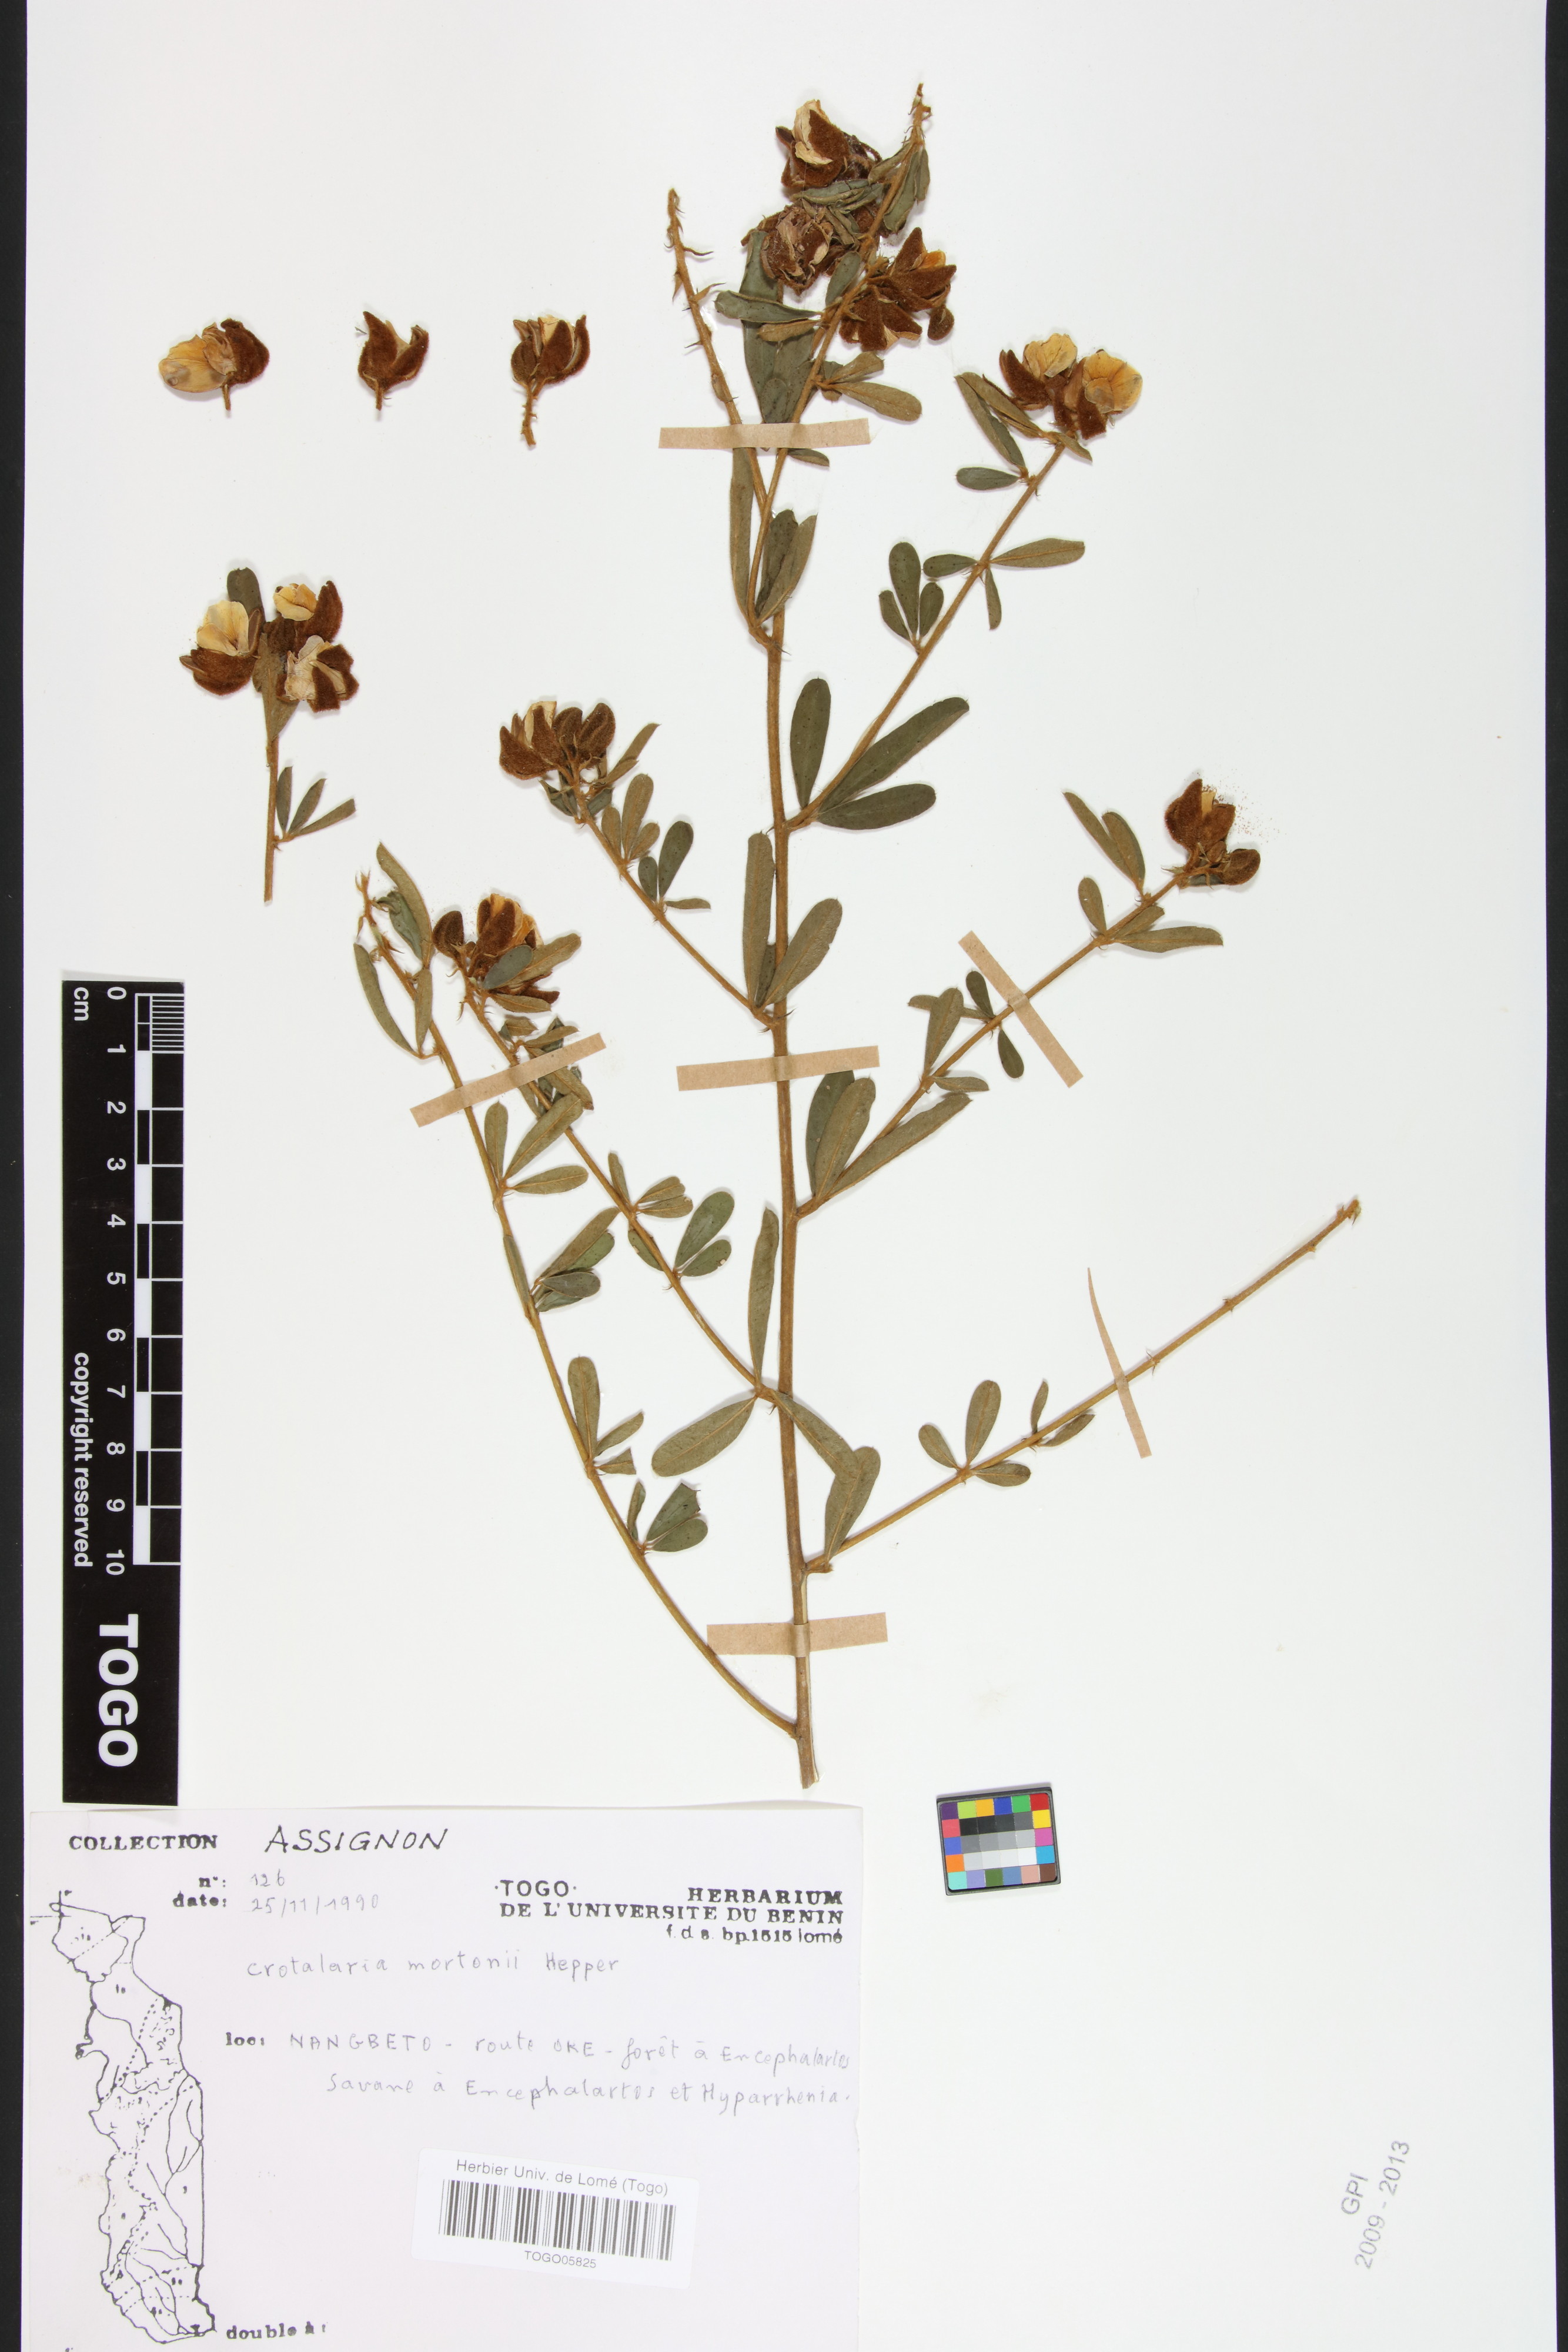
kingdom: Plantae
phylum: Tracheophyta
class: Magnoliopsida
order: Fabales
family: Fabaceae
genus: Crotalaria
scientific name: Crotalaria mortonii
